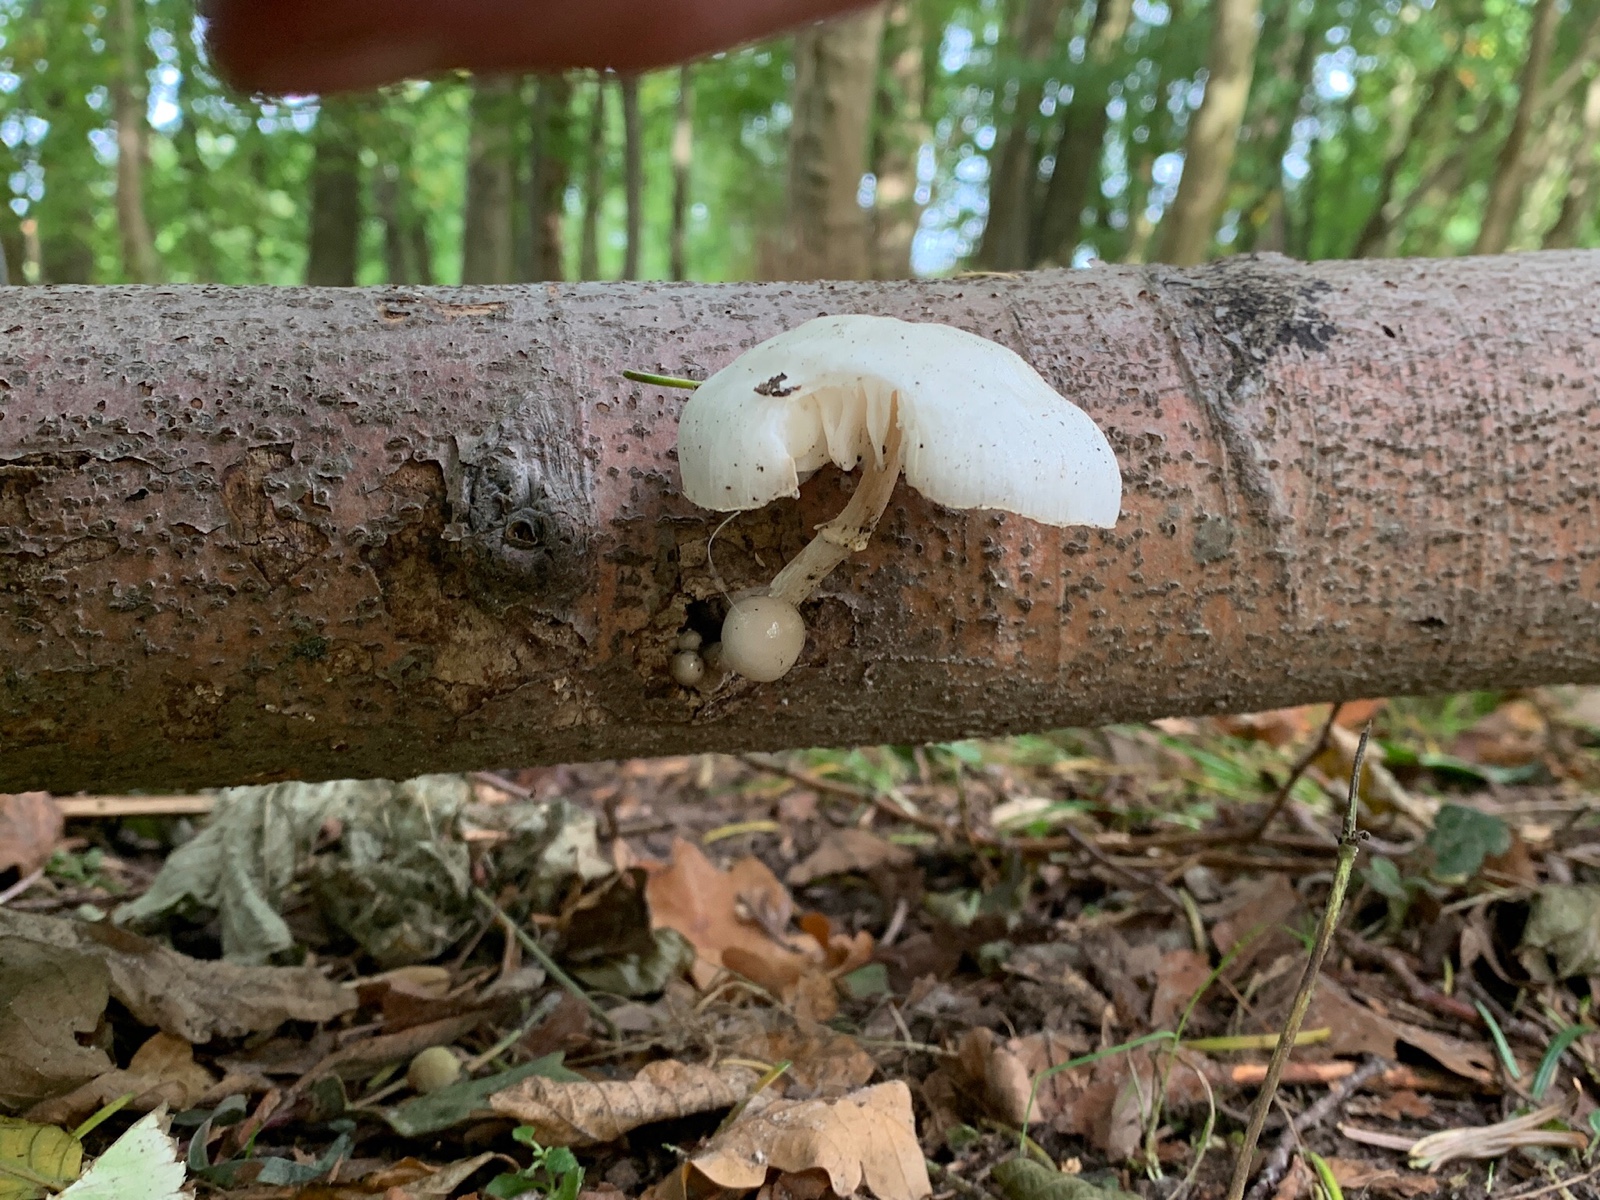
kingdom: Fungi
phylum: Basidiomycota
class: Agaricomycetes
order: Agaricales
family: Physalacriaceae
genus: Mucidula
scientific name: Mucidula mucida
